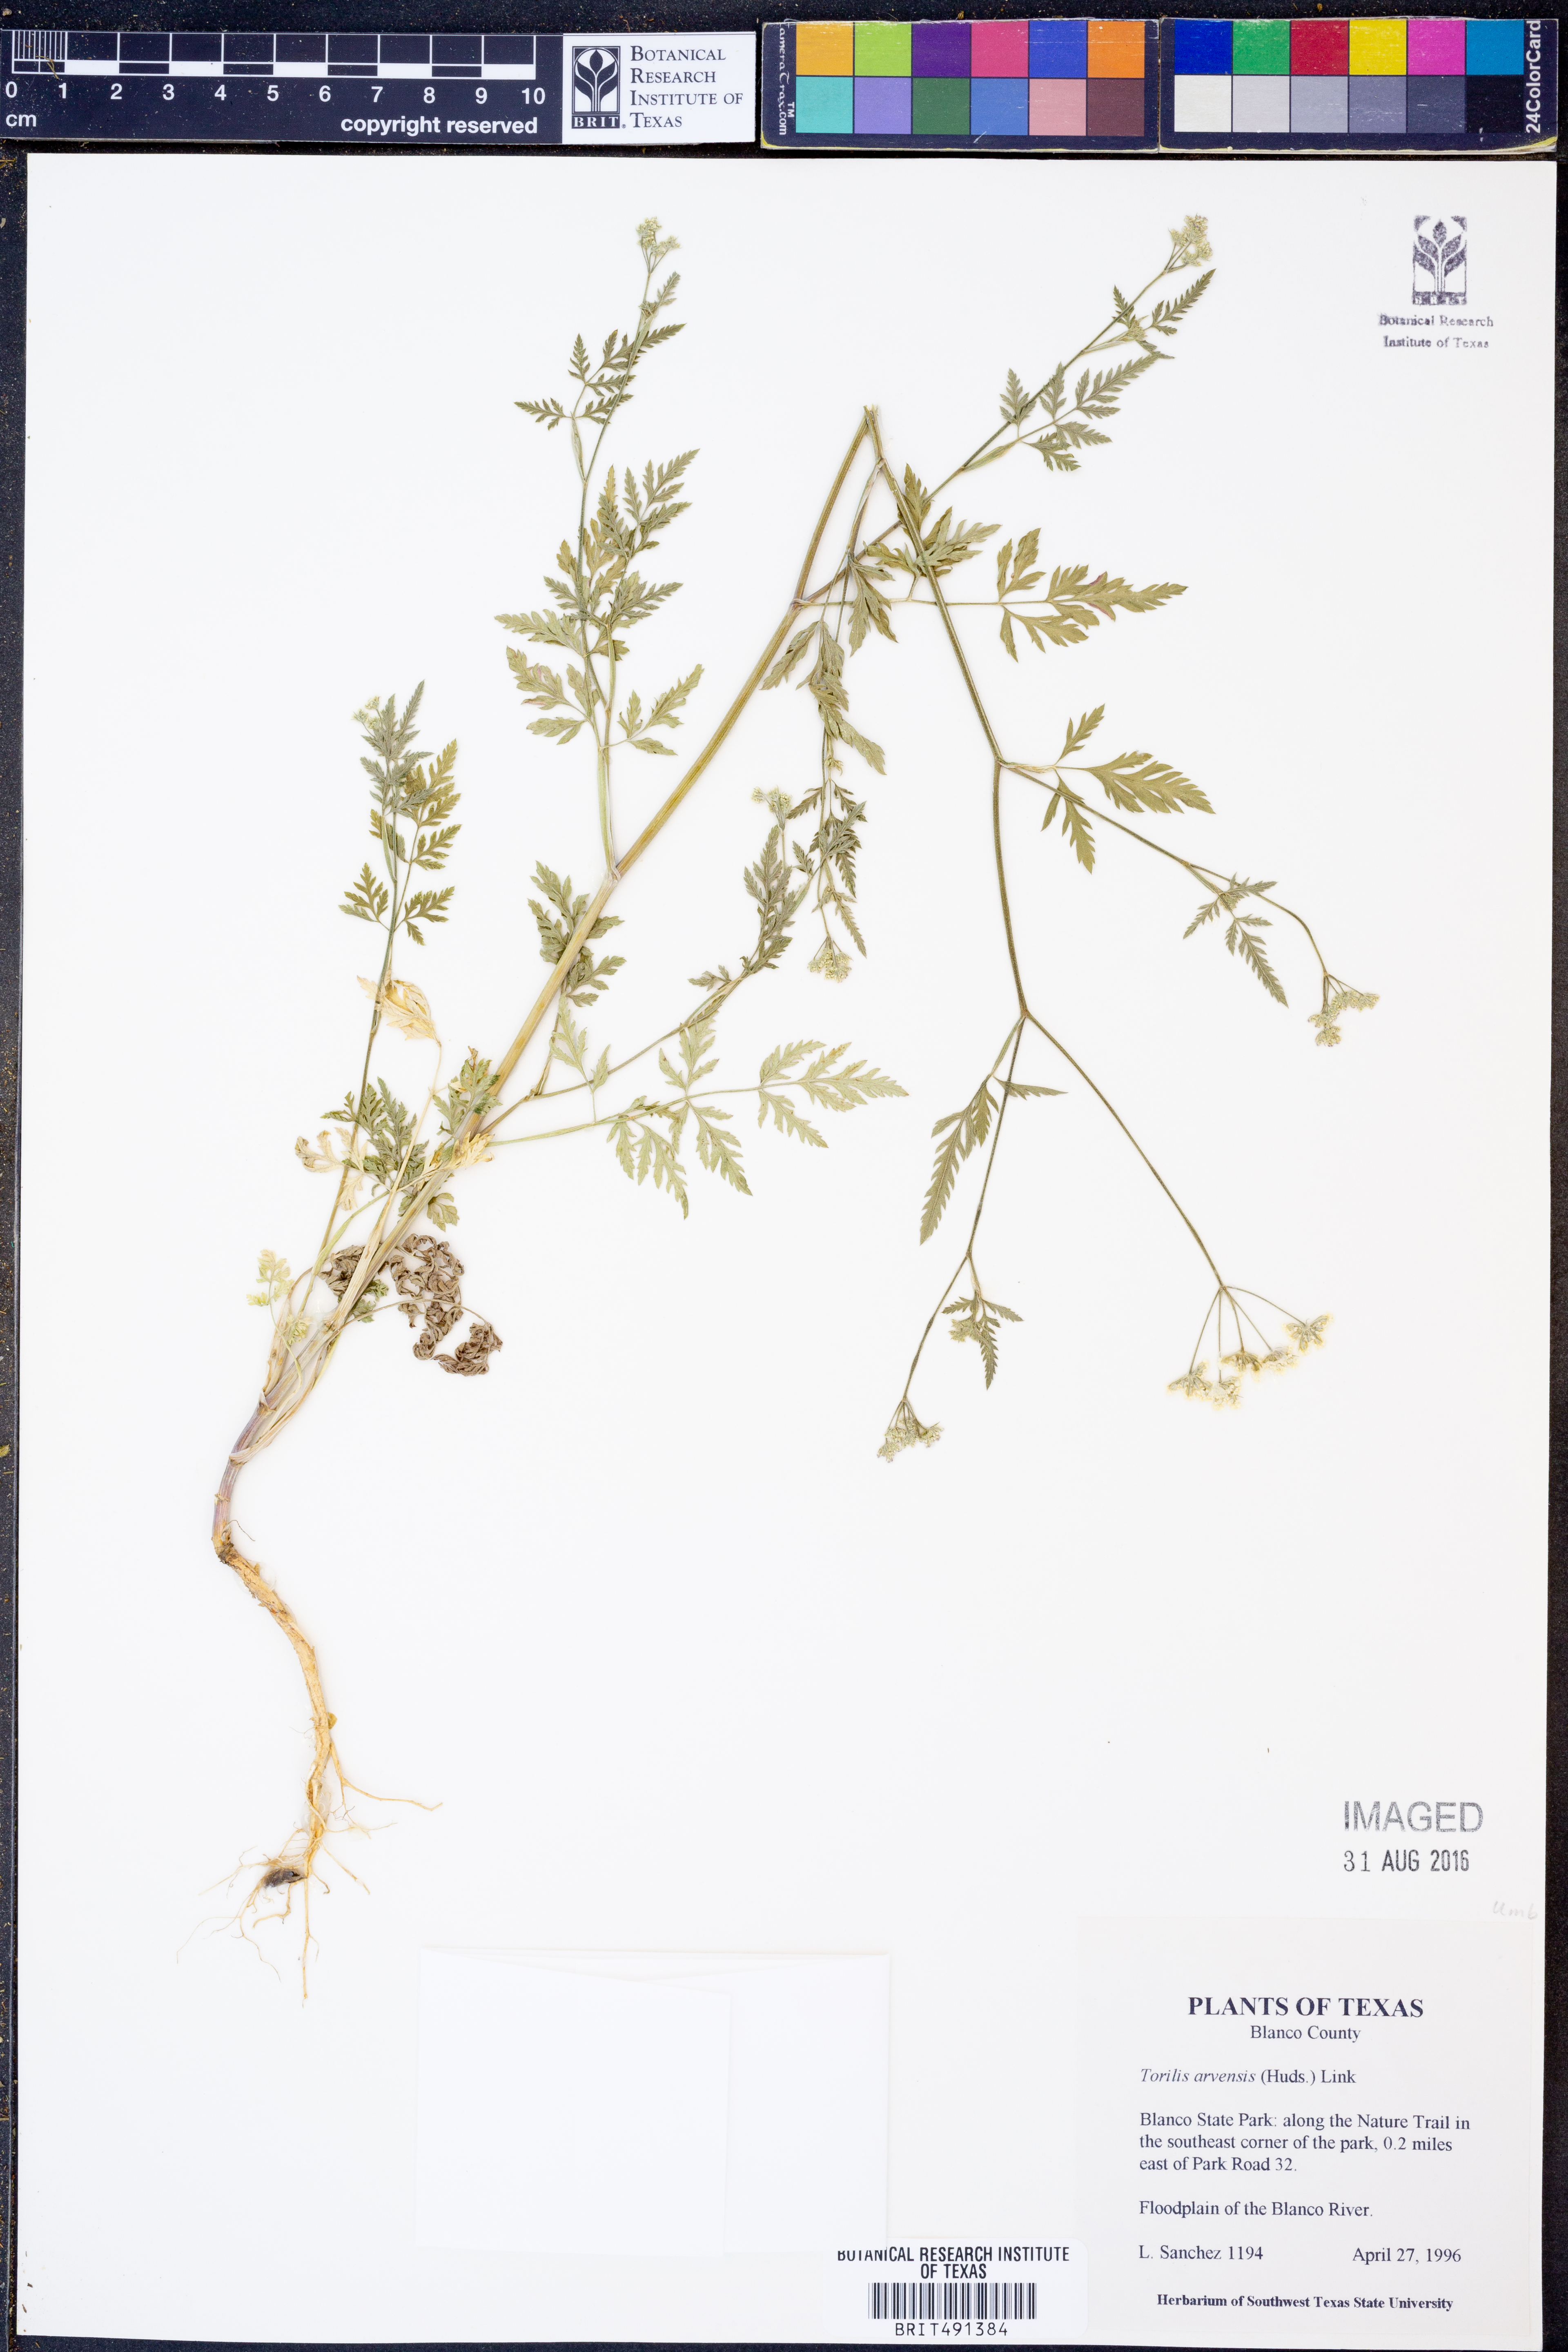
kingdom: Plantae
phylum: Tracheophyta
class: Magnoliopsida
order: Apiales
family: Apiaceae
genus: Torilis
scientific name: Torilis arvensis
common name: Spreading hedge-parsley
